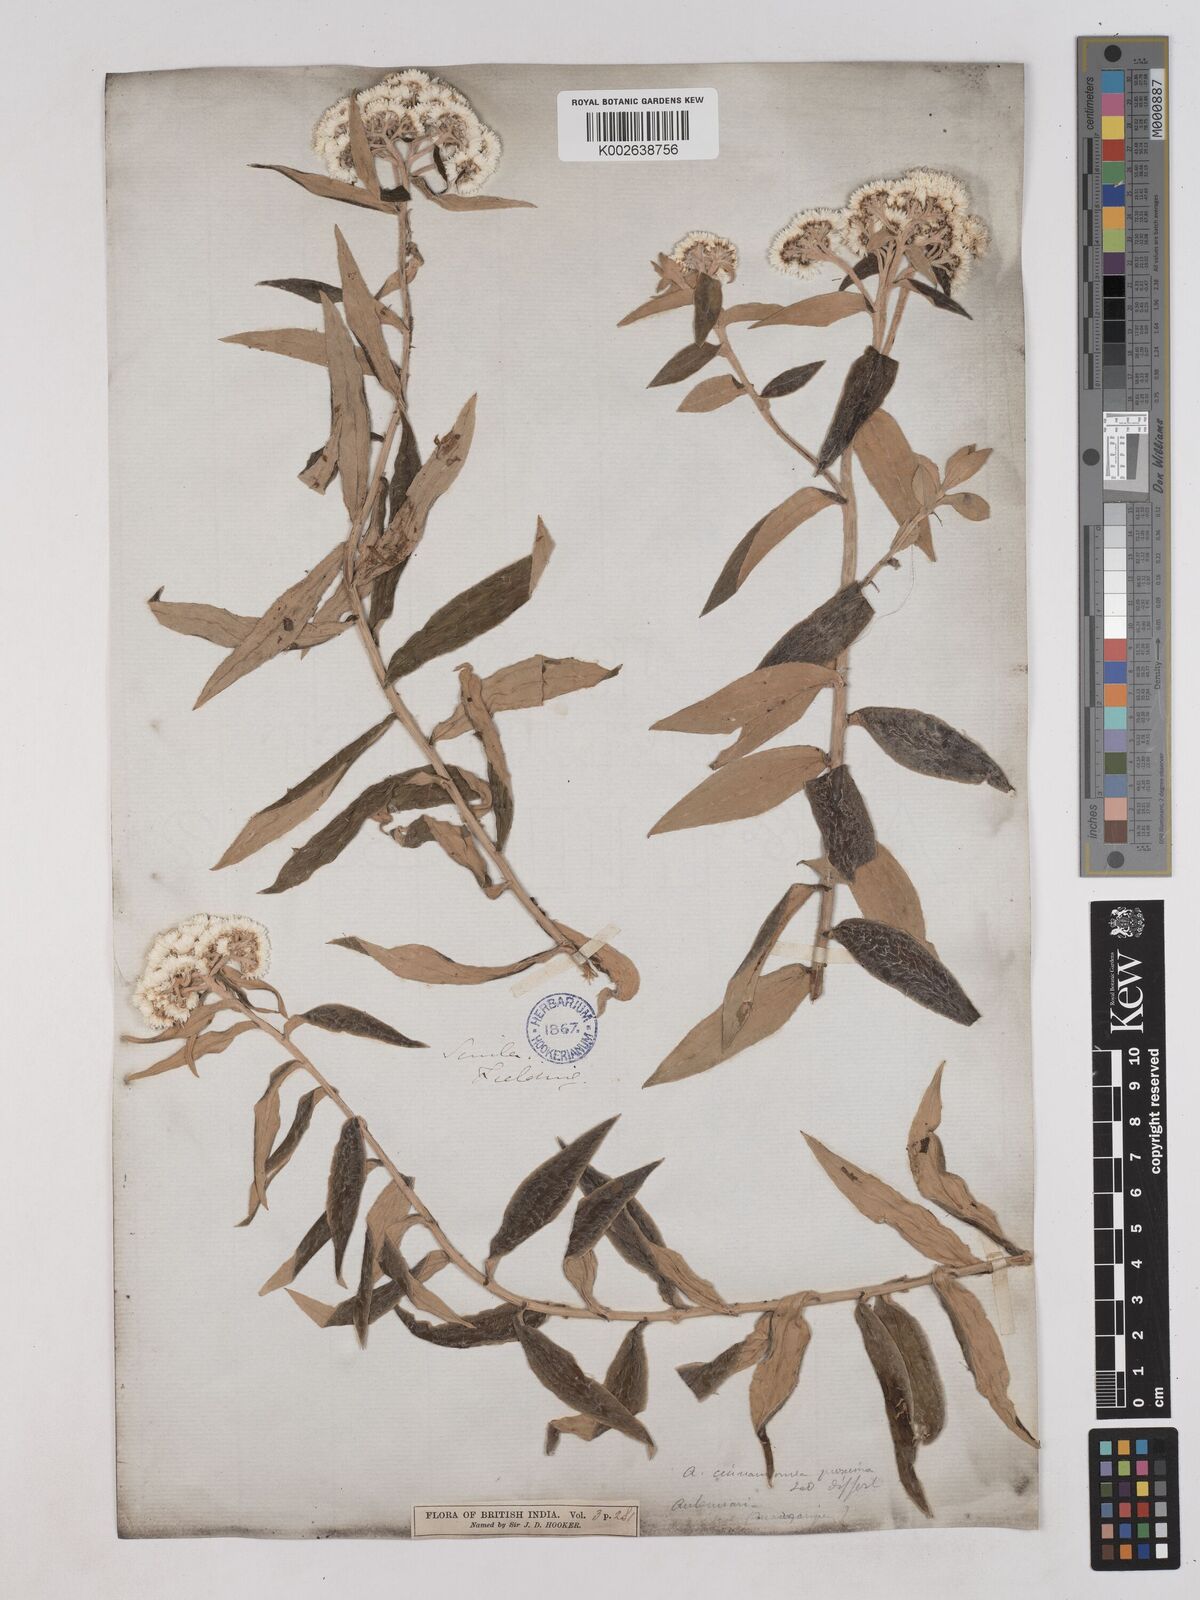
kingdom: Plantae
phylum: Tracheophyta
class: Magnoliopsida
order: Asterales
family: Asteraceae
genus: Anaphalis
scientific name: Anaphalis marcescens
